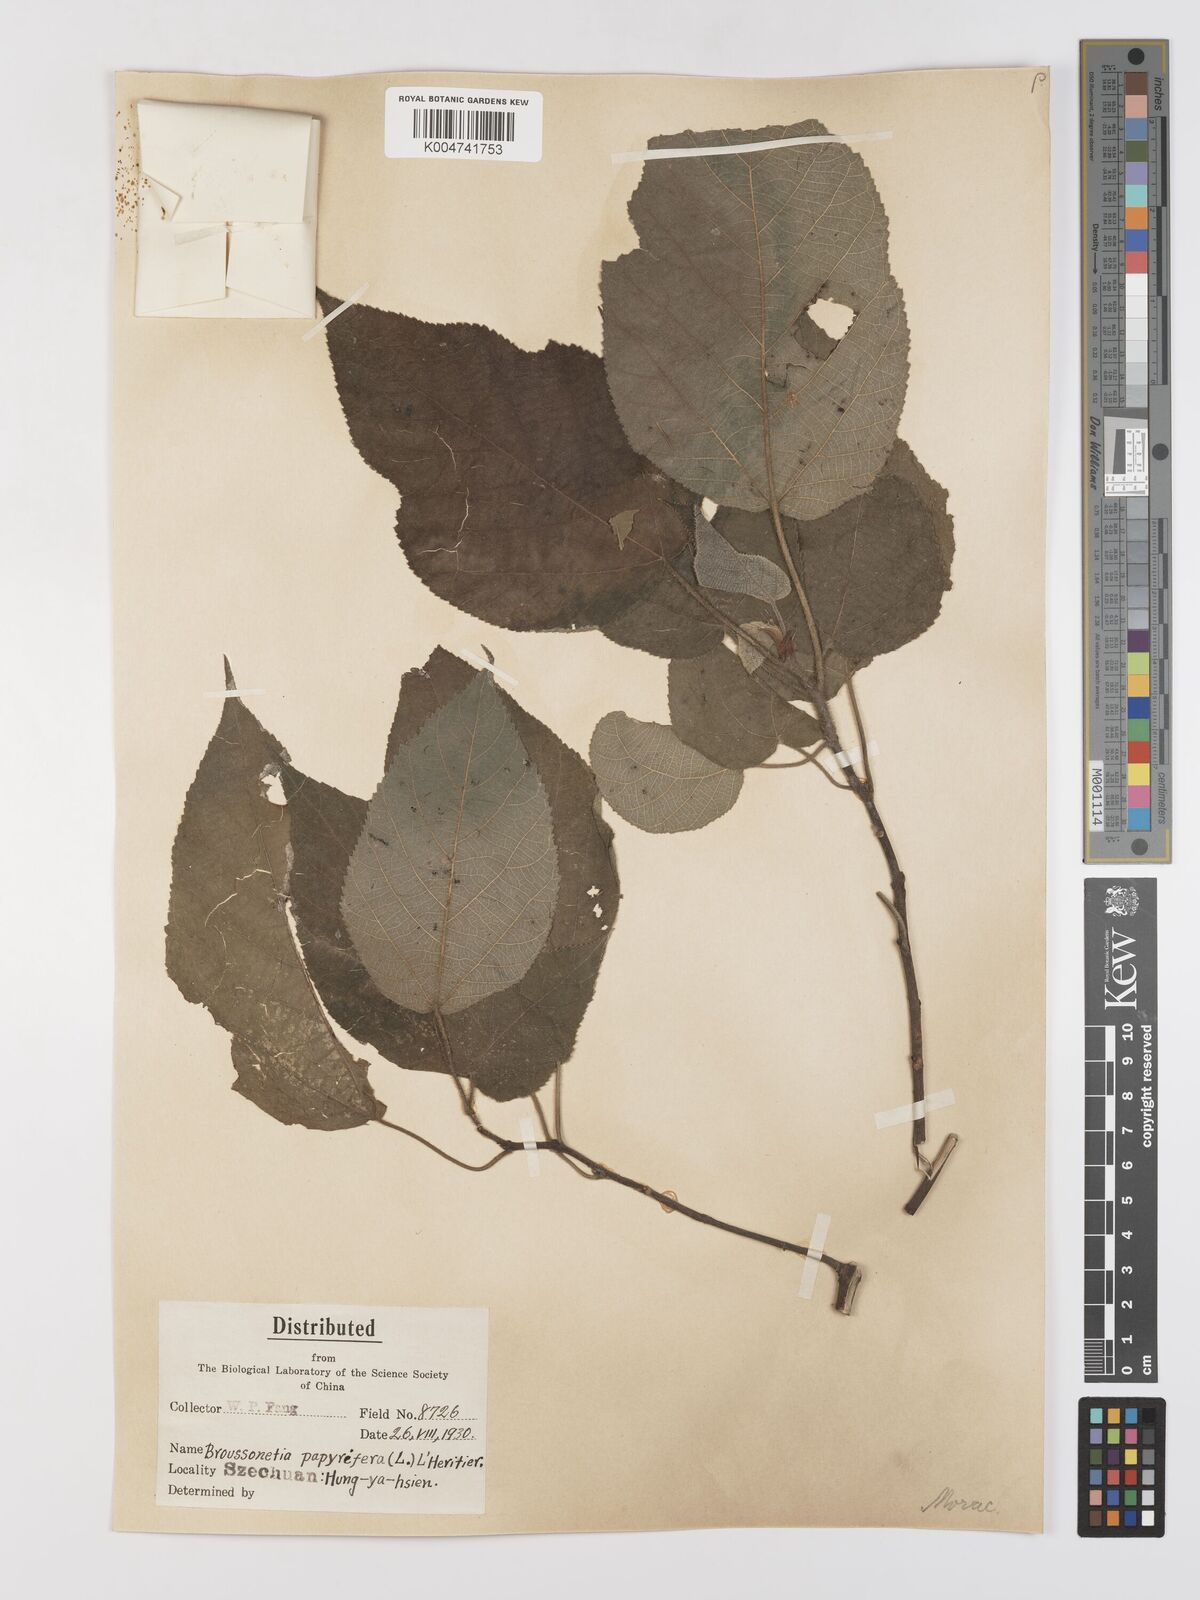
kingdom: Plantae
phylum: Tracheophyta
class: Magnoliopsida
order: Rosales
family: Moraceae
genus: Broussonetia
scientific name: Broussonetia
